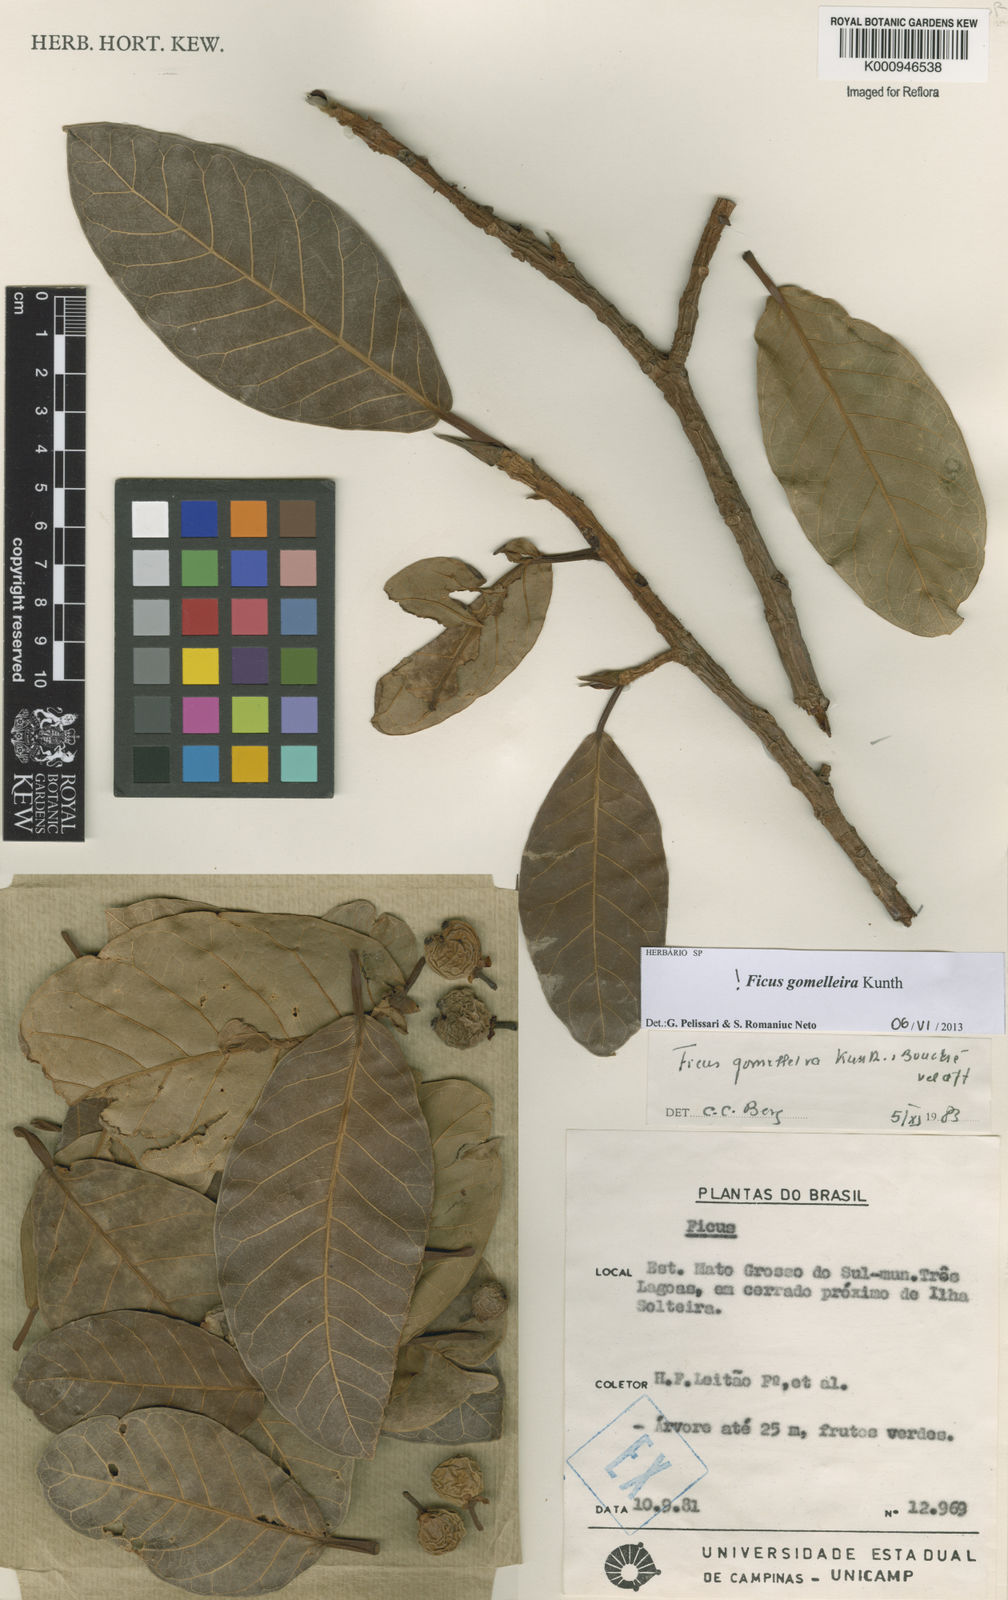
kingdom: Plantae
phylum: Tracheophyta
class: Magnoliopsida
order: Rosales
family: Moraceae
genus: Ficus
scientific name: Ficus gomelleira
